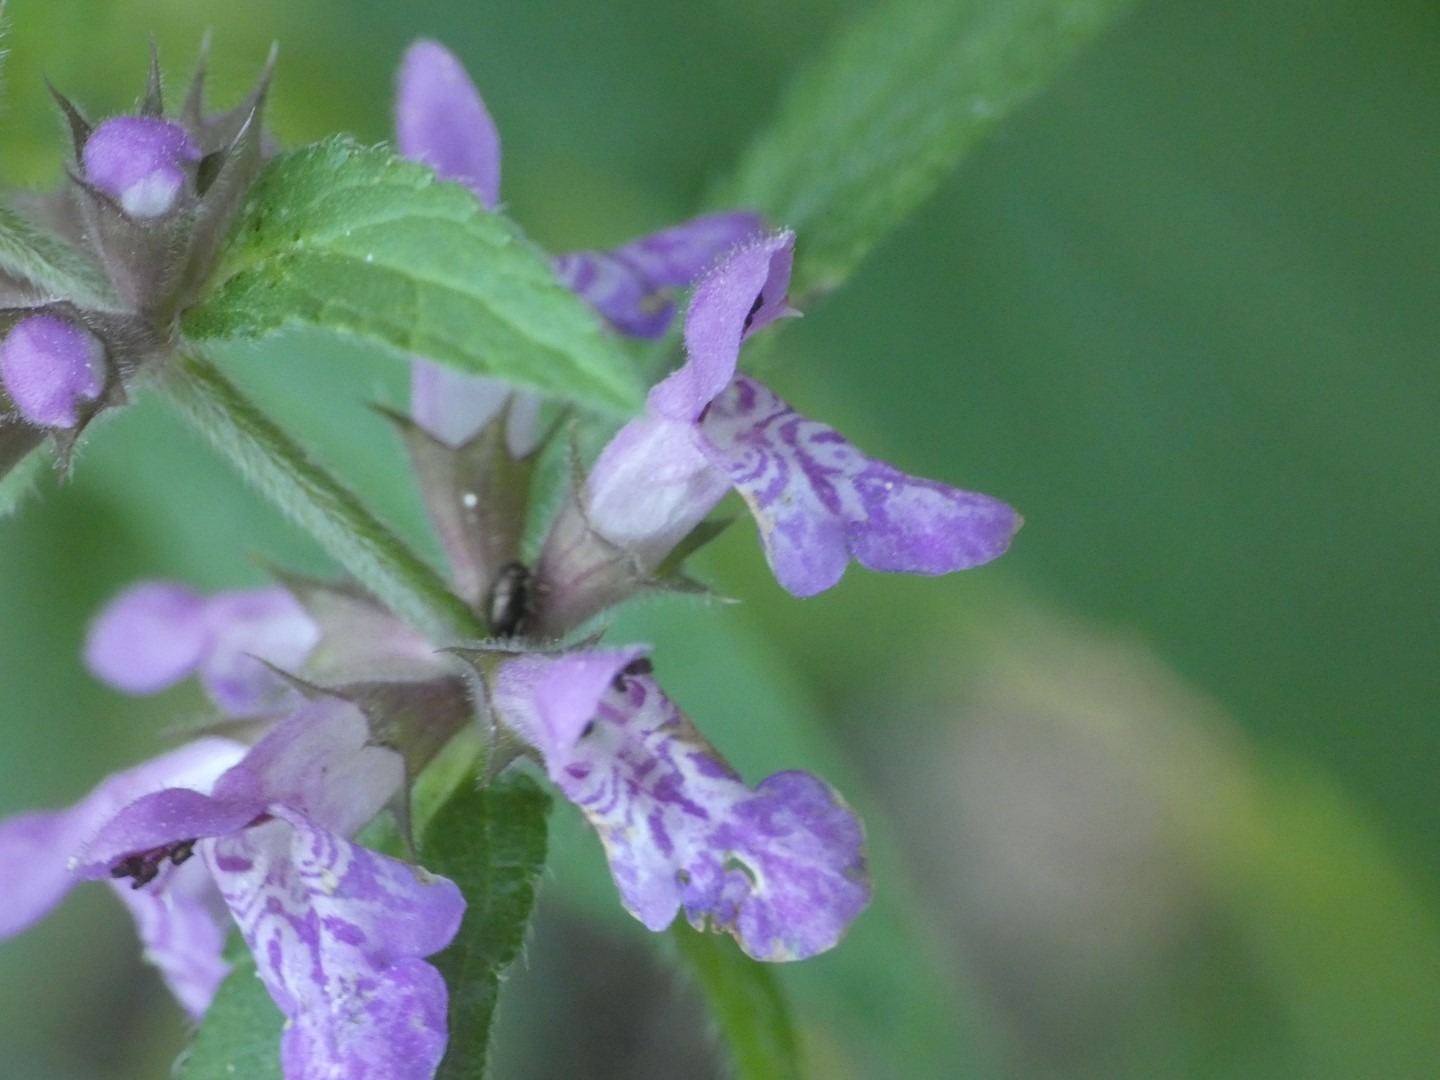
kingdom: Plantae
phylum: Tracheophyta
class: Magnoliopsida
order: Lamiales
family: Lamiaceae
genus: Stachys
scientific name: Stachys palustris
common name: Kær-galtetand
